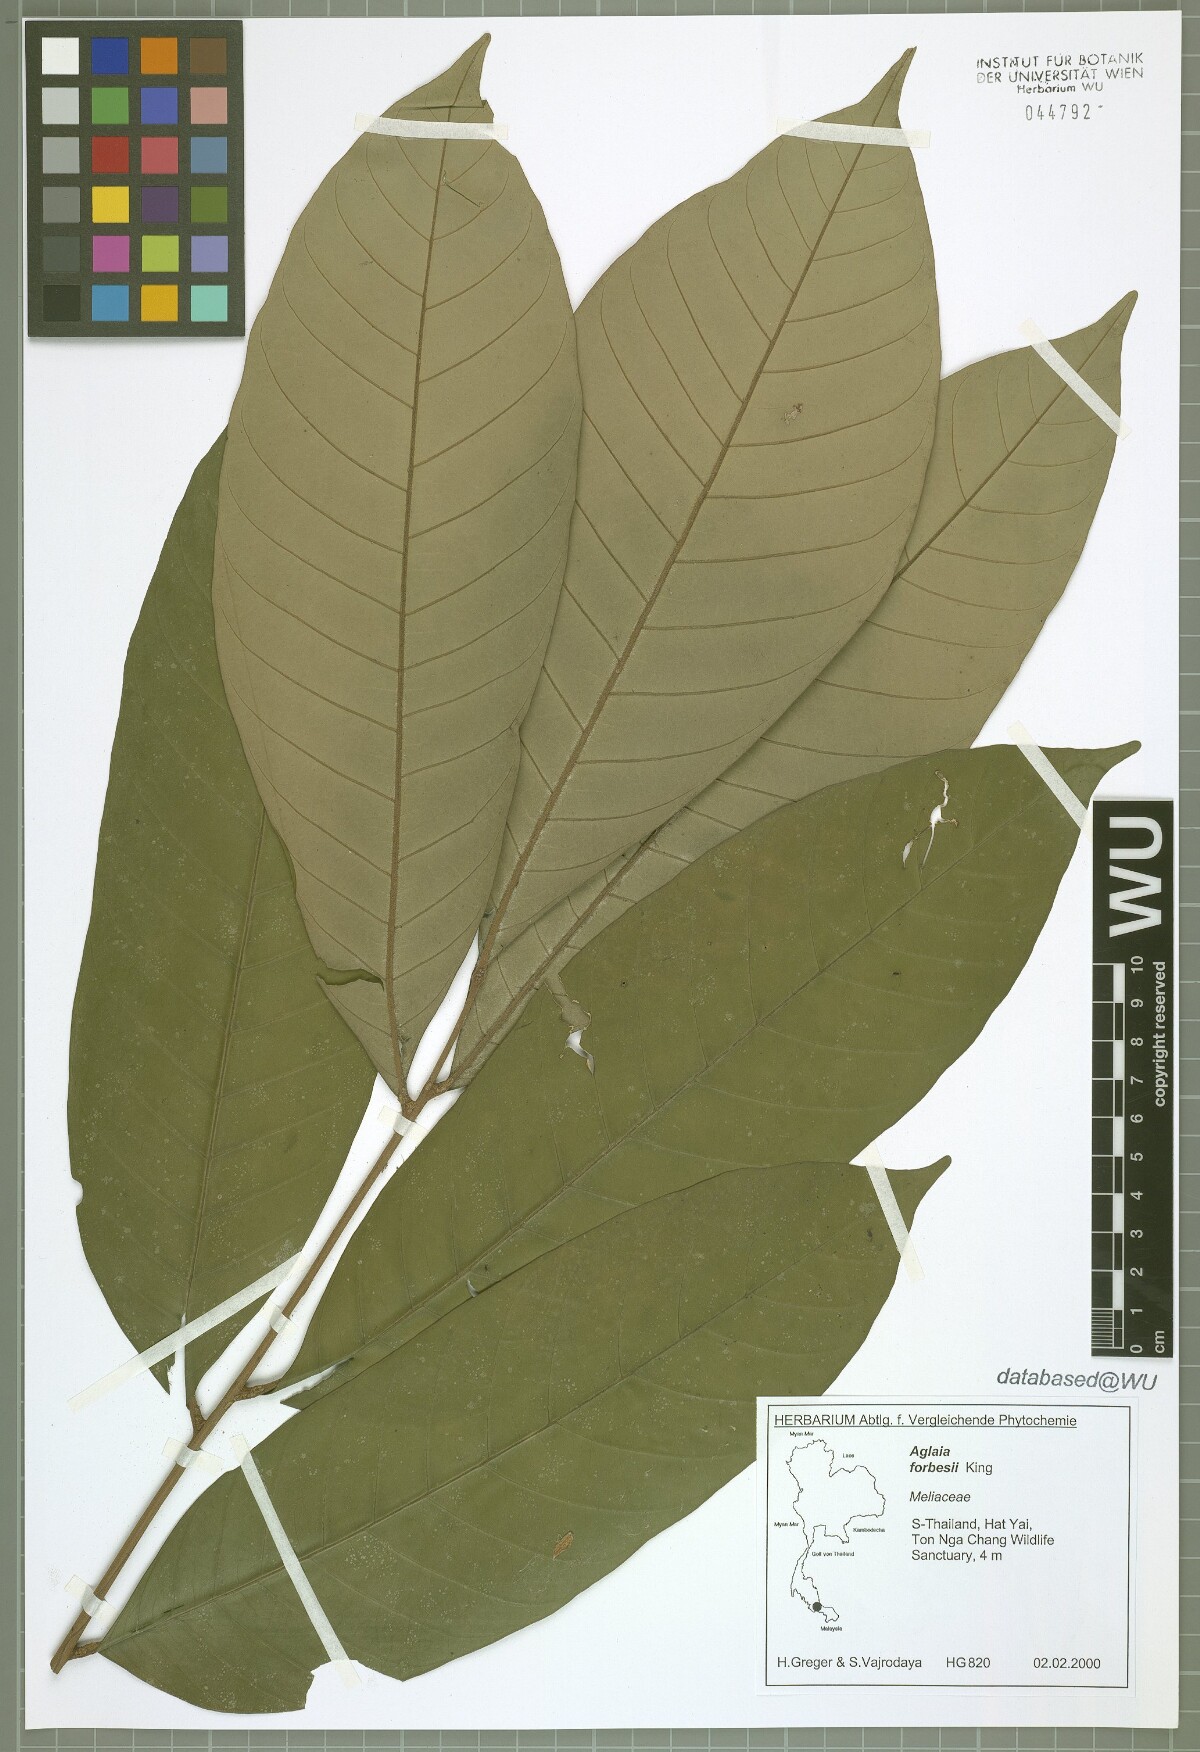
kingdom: Plantae
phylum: Tracheophyta
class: Magnoliopsida
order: Sapindales
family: Meliaceae
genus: Aglaia
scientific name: Aglaia forbesii
